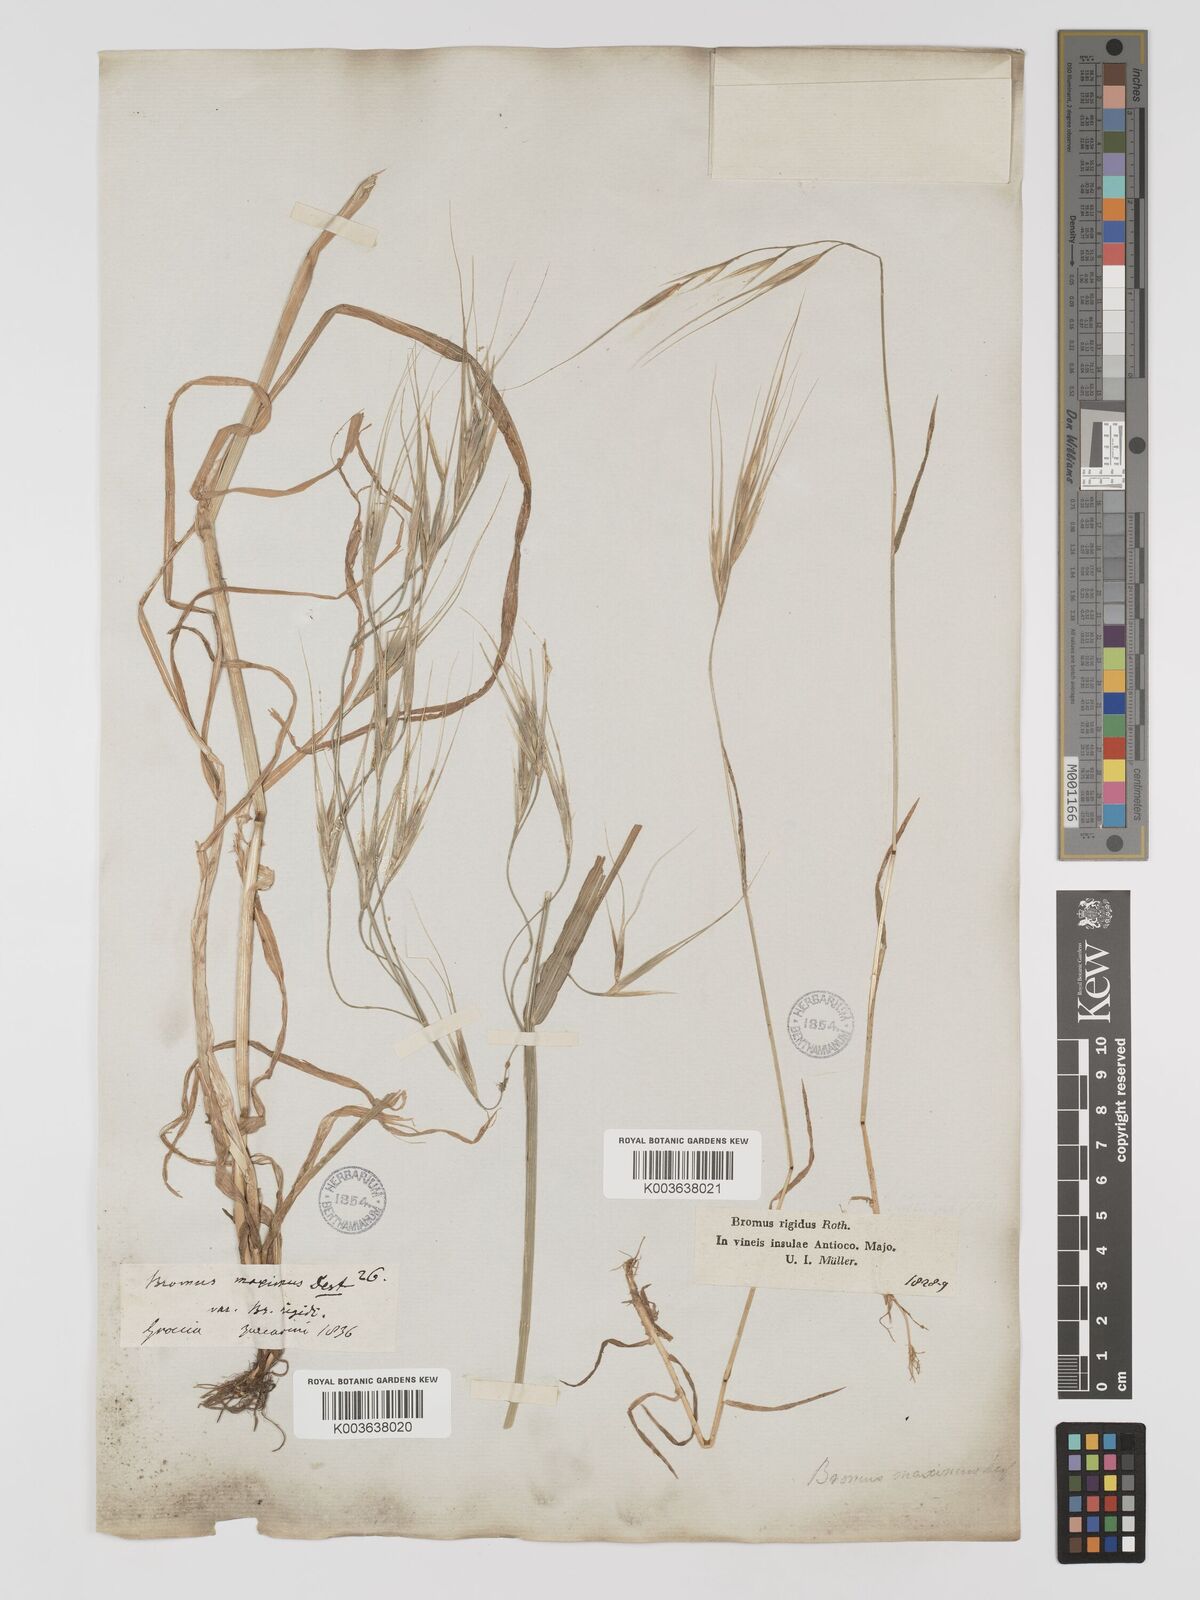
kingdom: Plantae
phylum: Tracheophyta
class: Liliopsida
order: Poales
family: Poaceae
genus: Bromus
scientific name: Bromus
